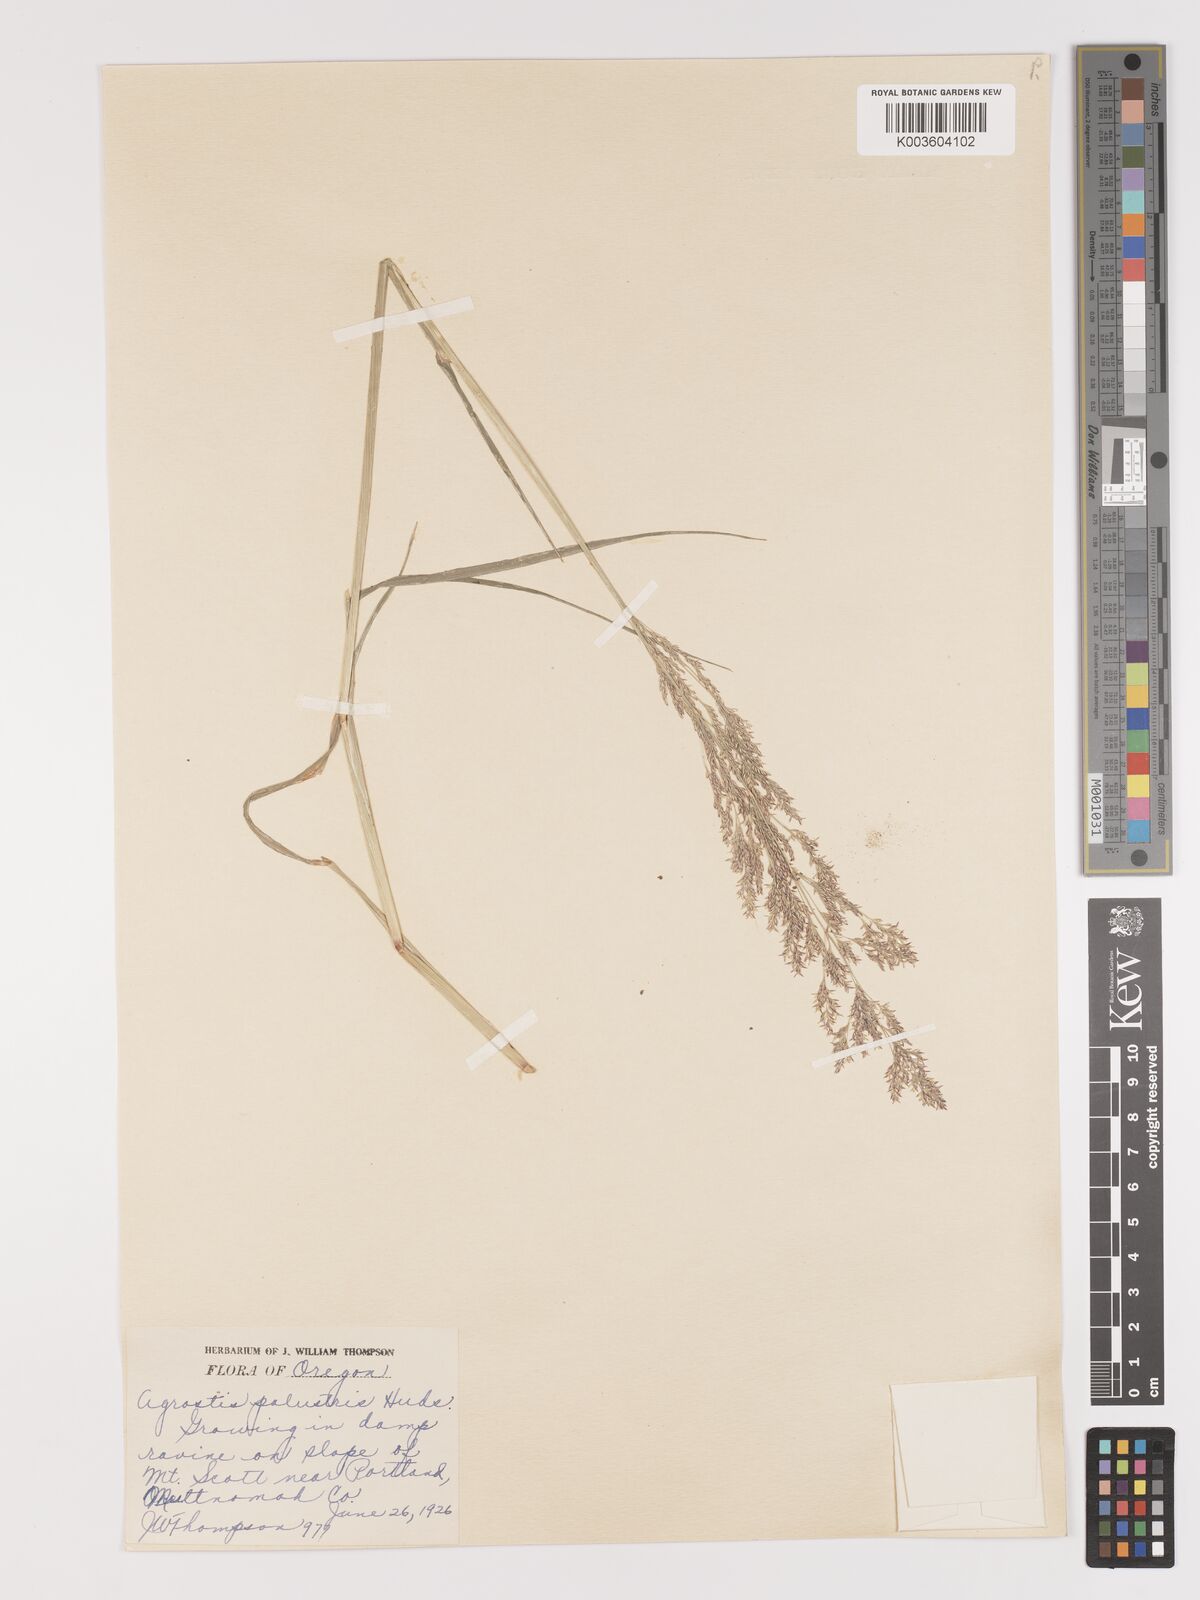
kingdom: Plantae
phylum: Tracheophyta
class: Liliopsida
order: Poales
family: Poaceae
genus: Agrostis
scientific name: Agrostis gigantea
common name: Black bent
